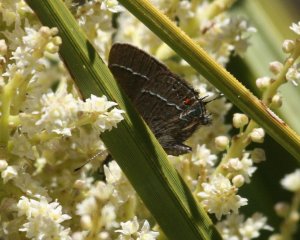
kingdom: Animalia
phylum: Arthropoda
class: Insecta
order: Lepidoptera
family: Lycaenidae
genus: Fixsenia
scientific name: Fixsenia polingi
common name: Poling's Hairstreak
